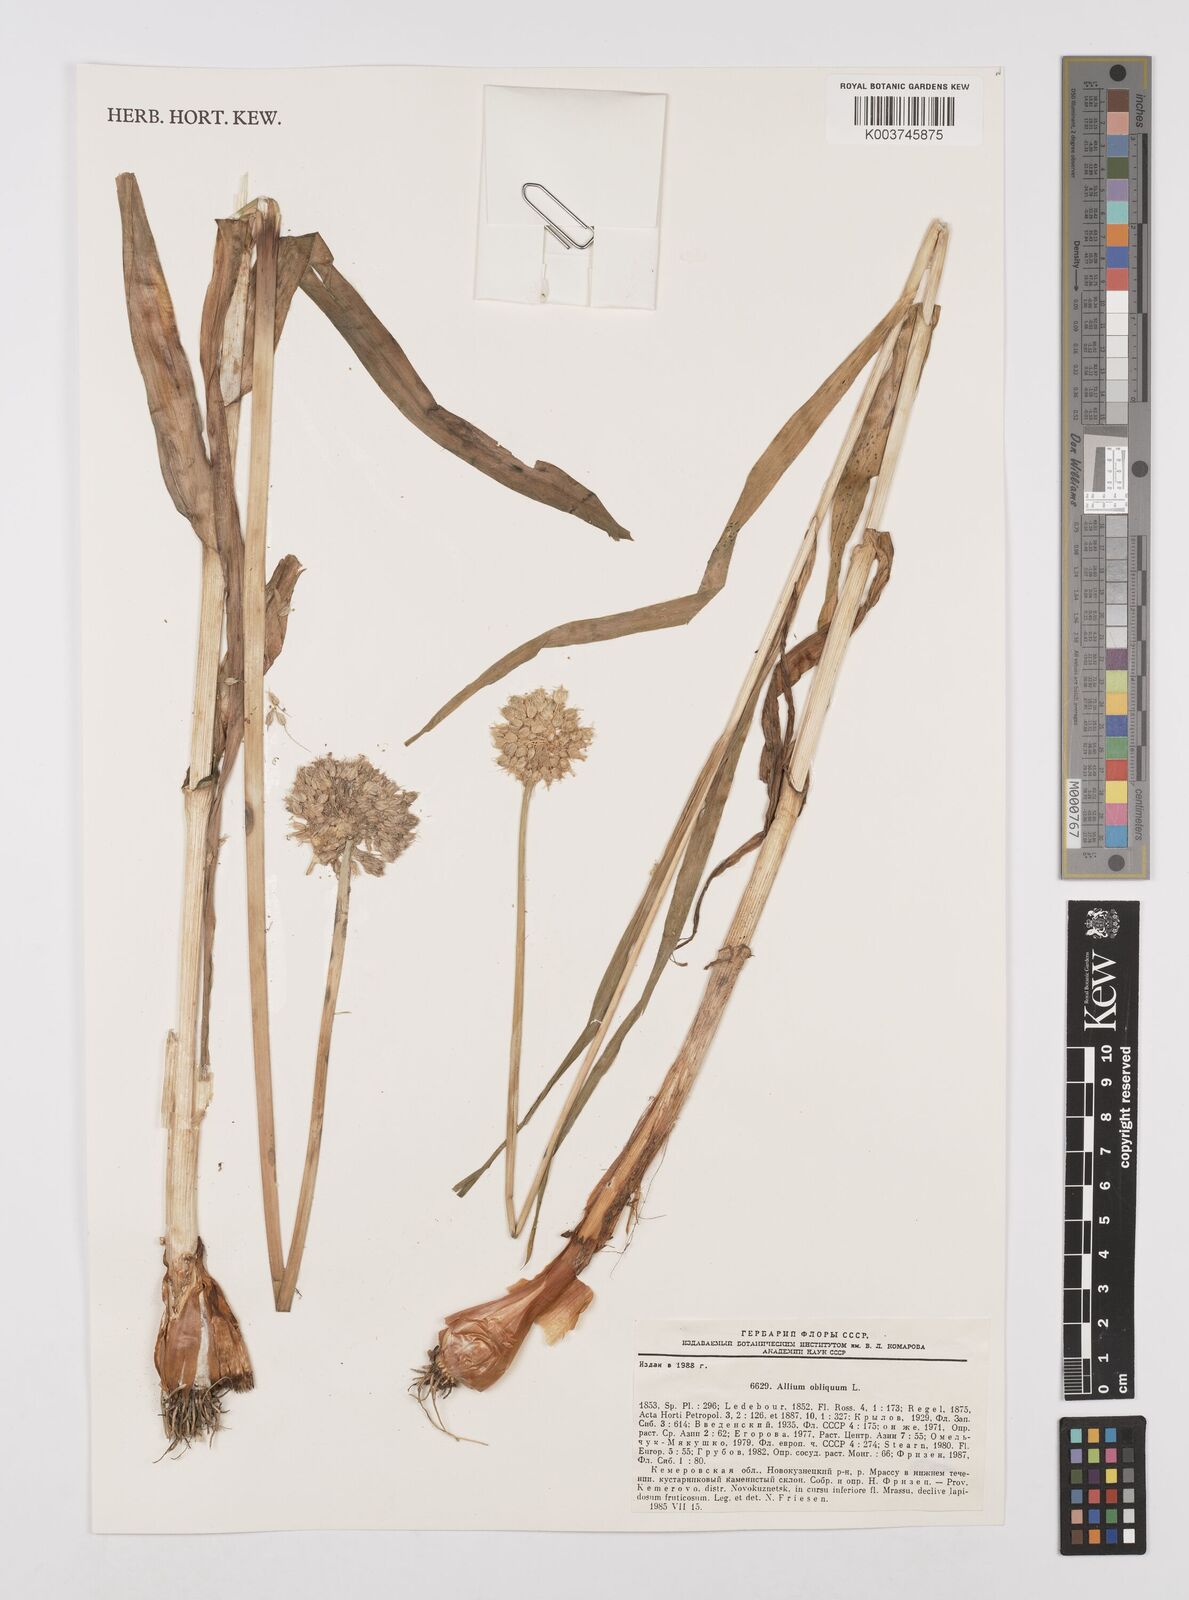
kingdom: Plantae
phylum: Tracheophyta
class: Liliopsida
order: Asparagales
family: Amaryllidaceae
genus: Allium
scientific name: Allium obliquum
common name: Oblique onion
